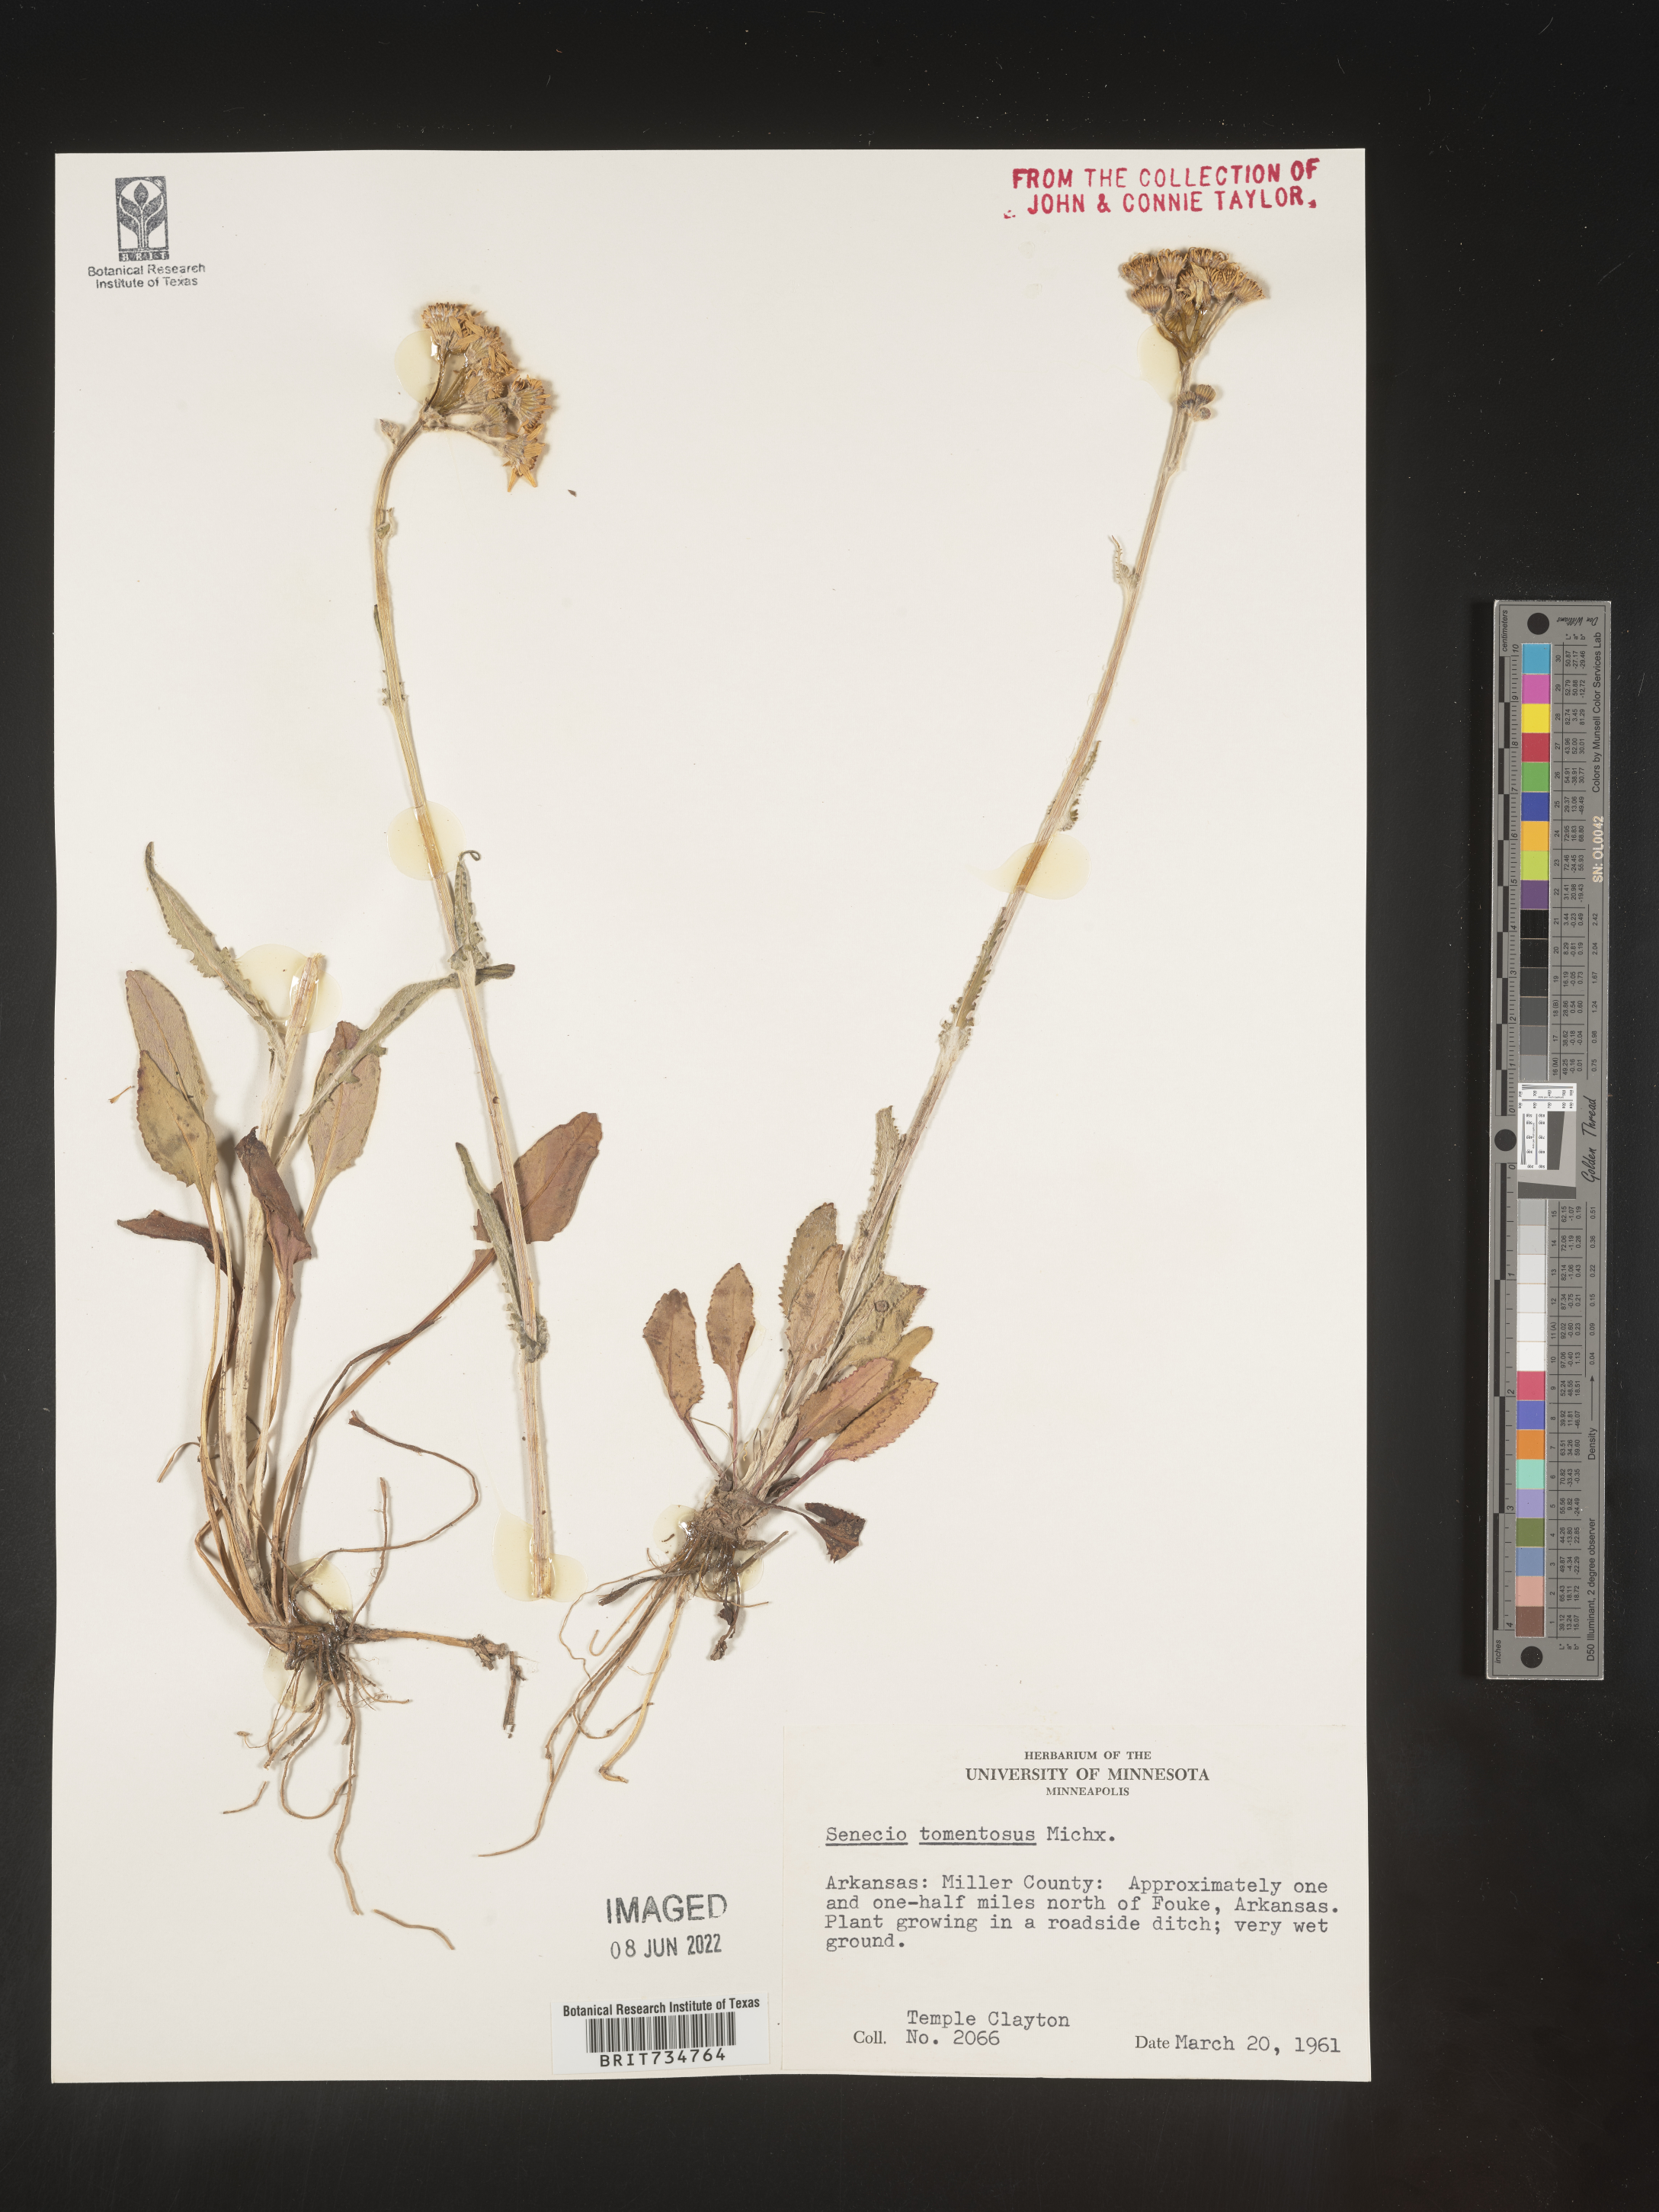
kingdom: Plantae
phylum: Tracheophyta
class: Magnoliopsida
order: Asterales
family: Asteraceae
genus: Packera
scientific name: Packera dubia
